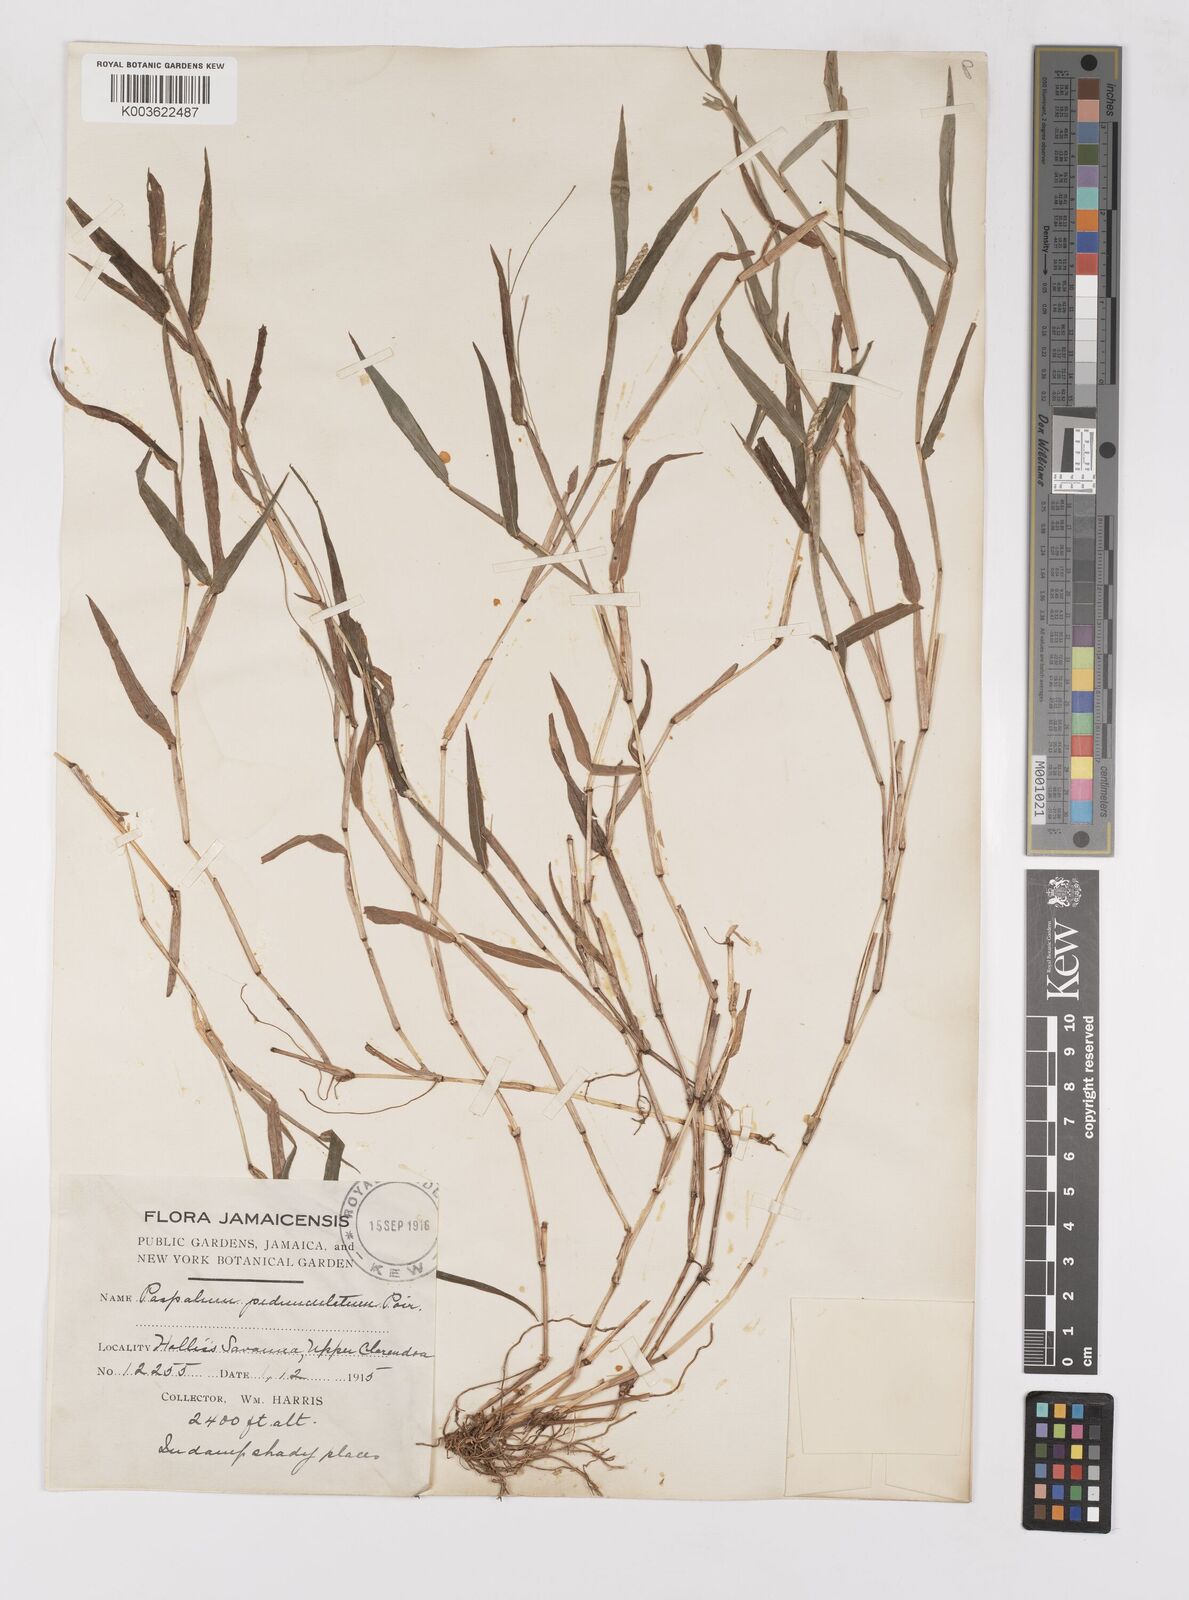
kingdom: Plantae
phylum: Tracheophyta
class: Liliopsida
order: Poales
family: Poaceae
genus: Paspalum
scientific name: Paspalum decumbens
